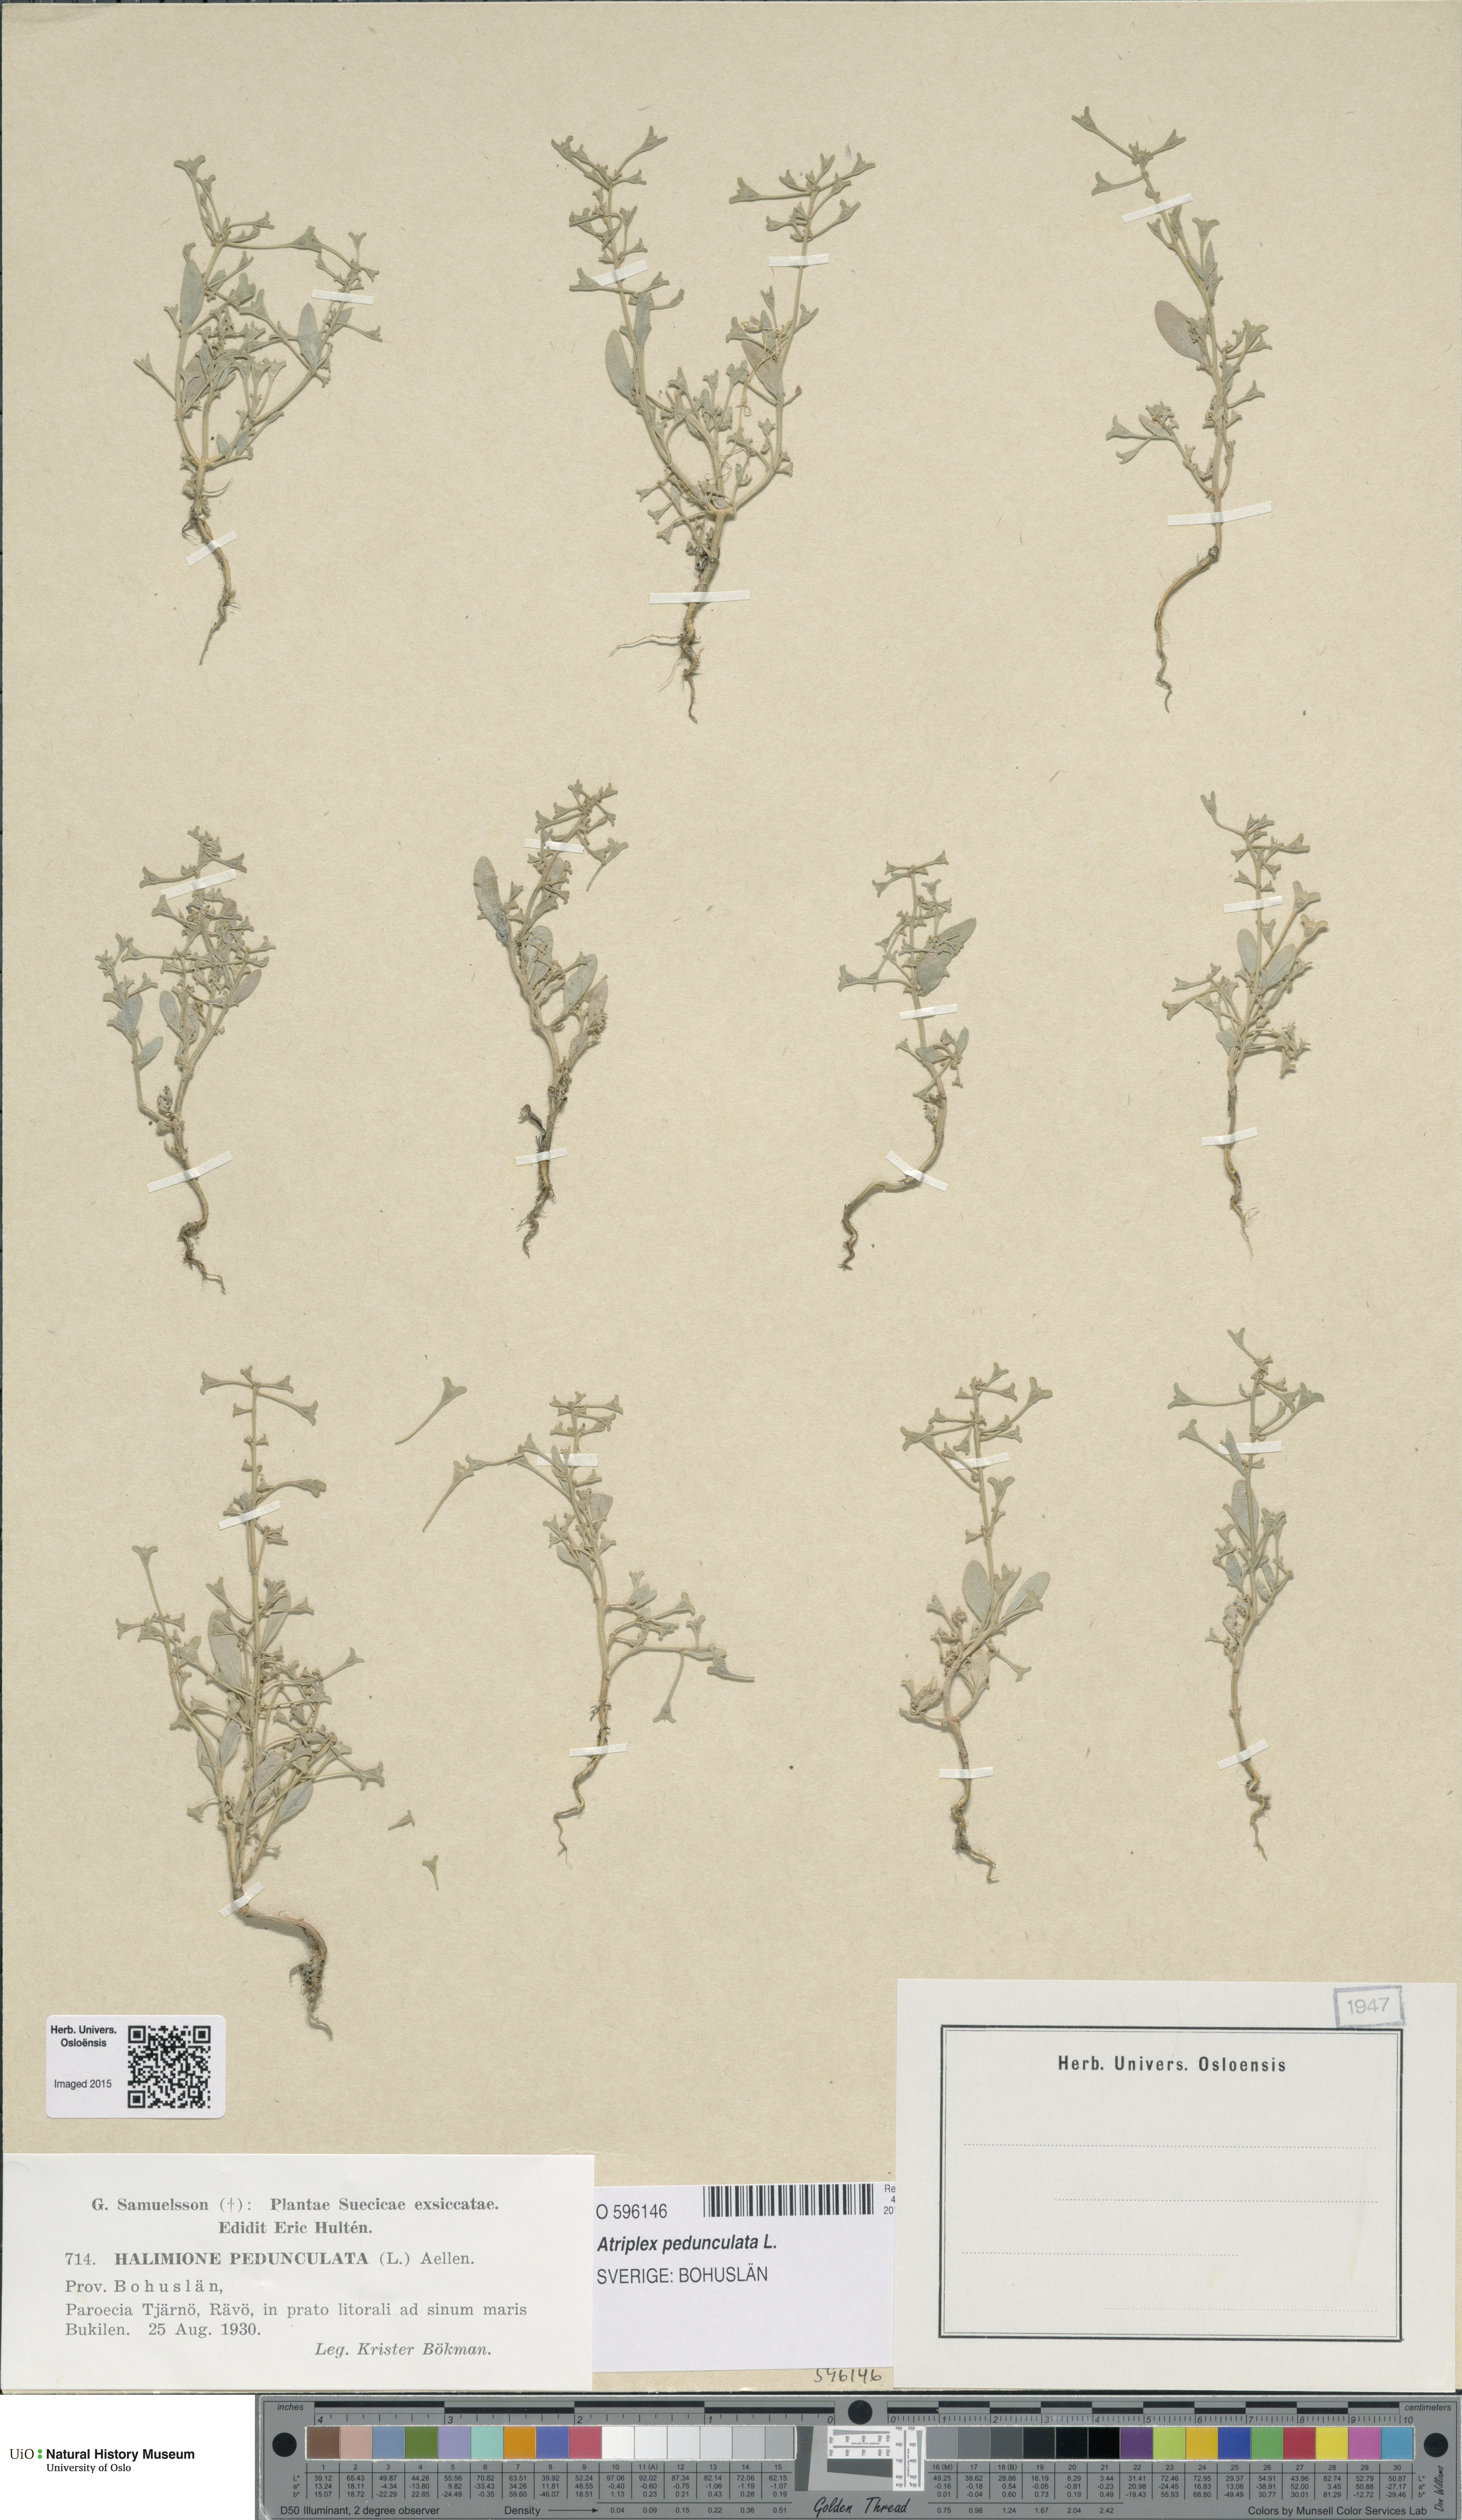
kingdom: Plantae
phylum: Tracheophyta
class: Magnoliopsida
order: Caryophyllales
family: Amaranthaceae
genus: Halimione
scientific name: Halimione pedunculata
